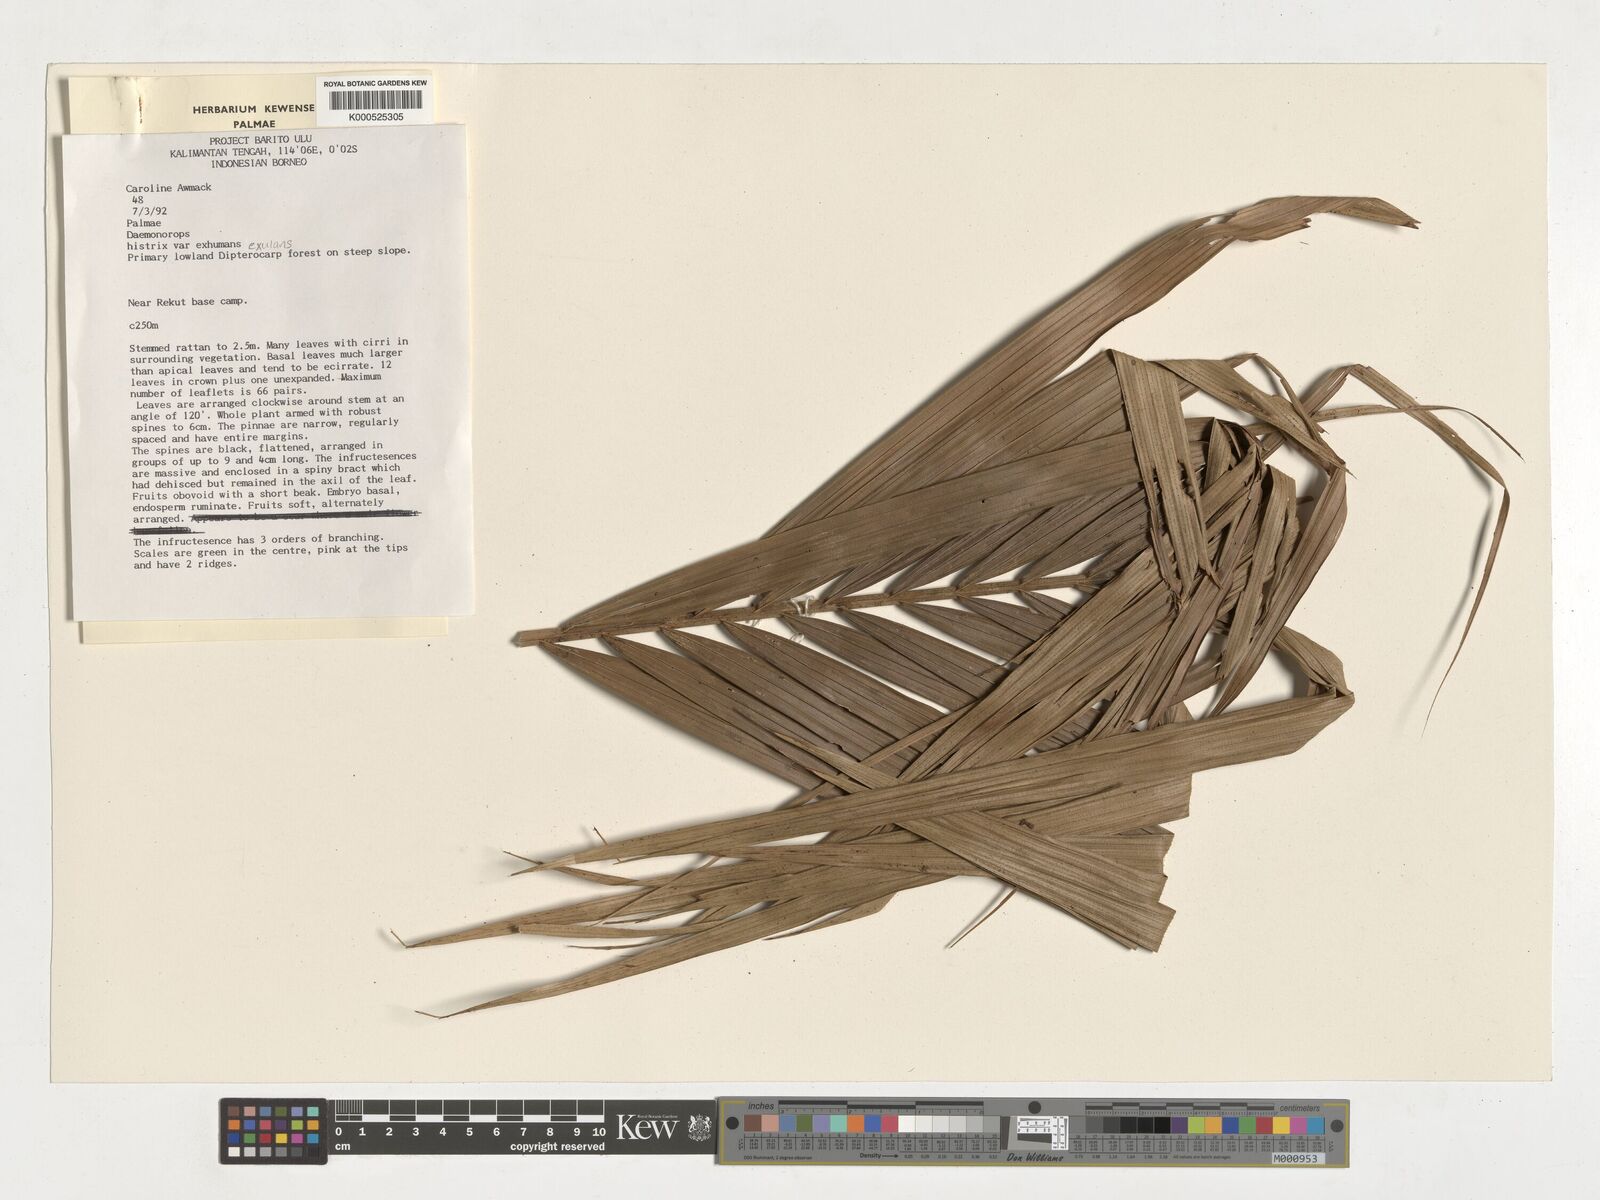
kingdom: Plantae
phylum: Tracheophyta
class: Liliopsida
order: Arecales
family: Arecaceae
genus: Calamus
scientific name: Calamus hirsutus
